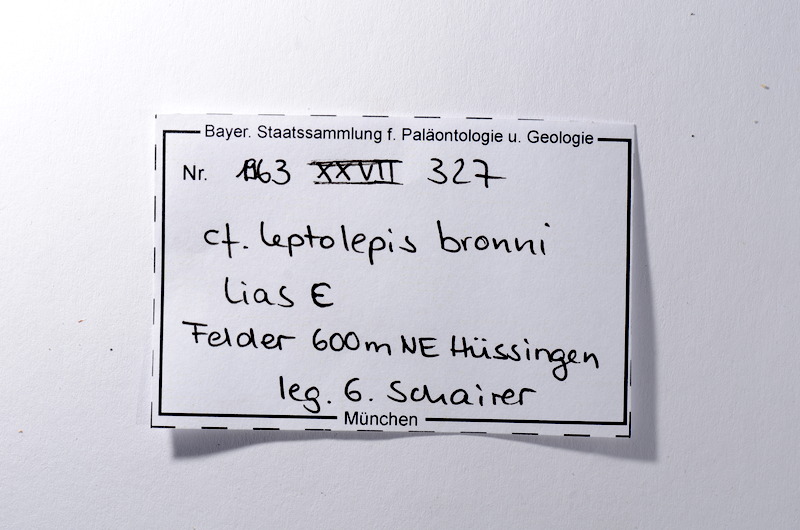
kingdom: Animalia
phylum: Chordata
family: Leptolepididae
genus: Leptolepis
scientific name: Leptolepis coryphaenoides
